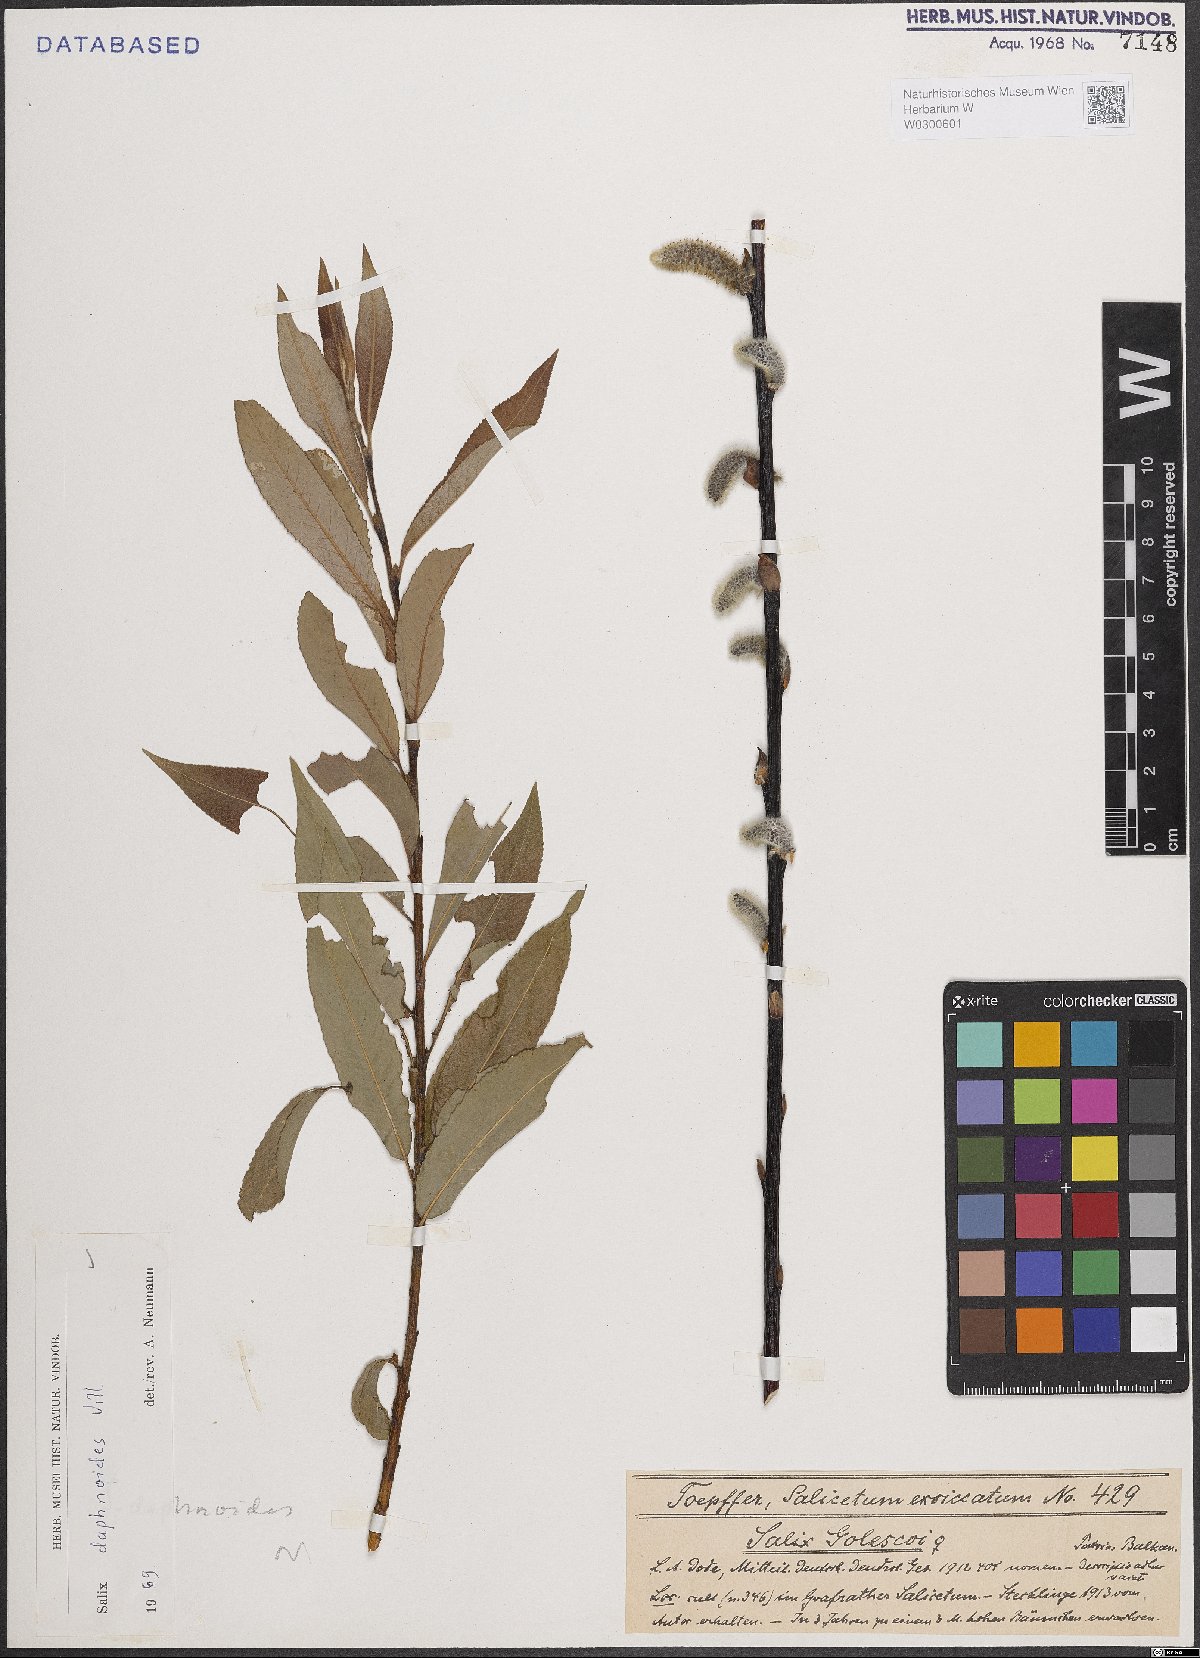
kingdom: Plantae
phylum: Tracheophyta
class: Magnoliopsida
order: Malpighiales
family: Salicaceae
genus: Salix
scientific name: Salix daphnoides
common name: European violet-willow
